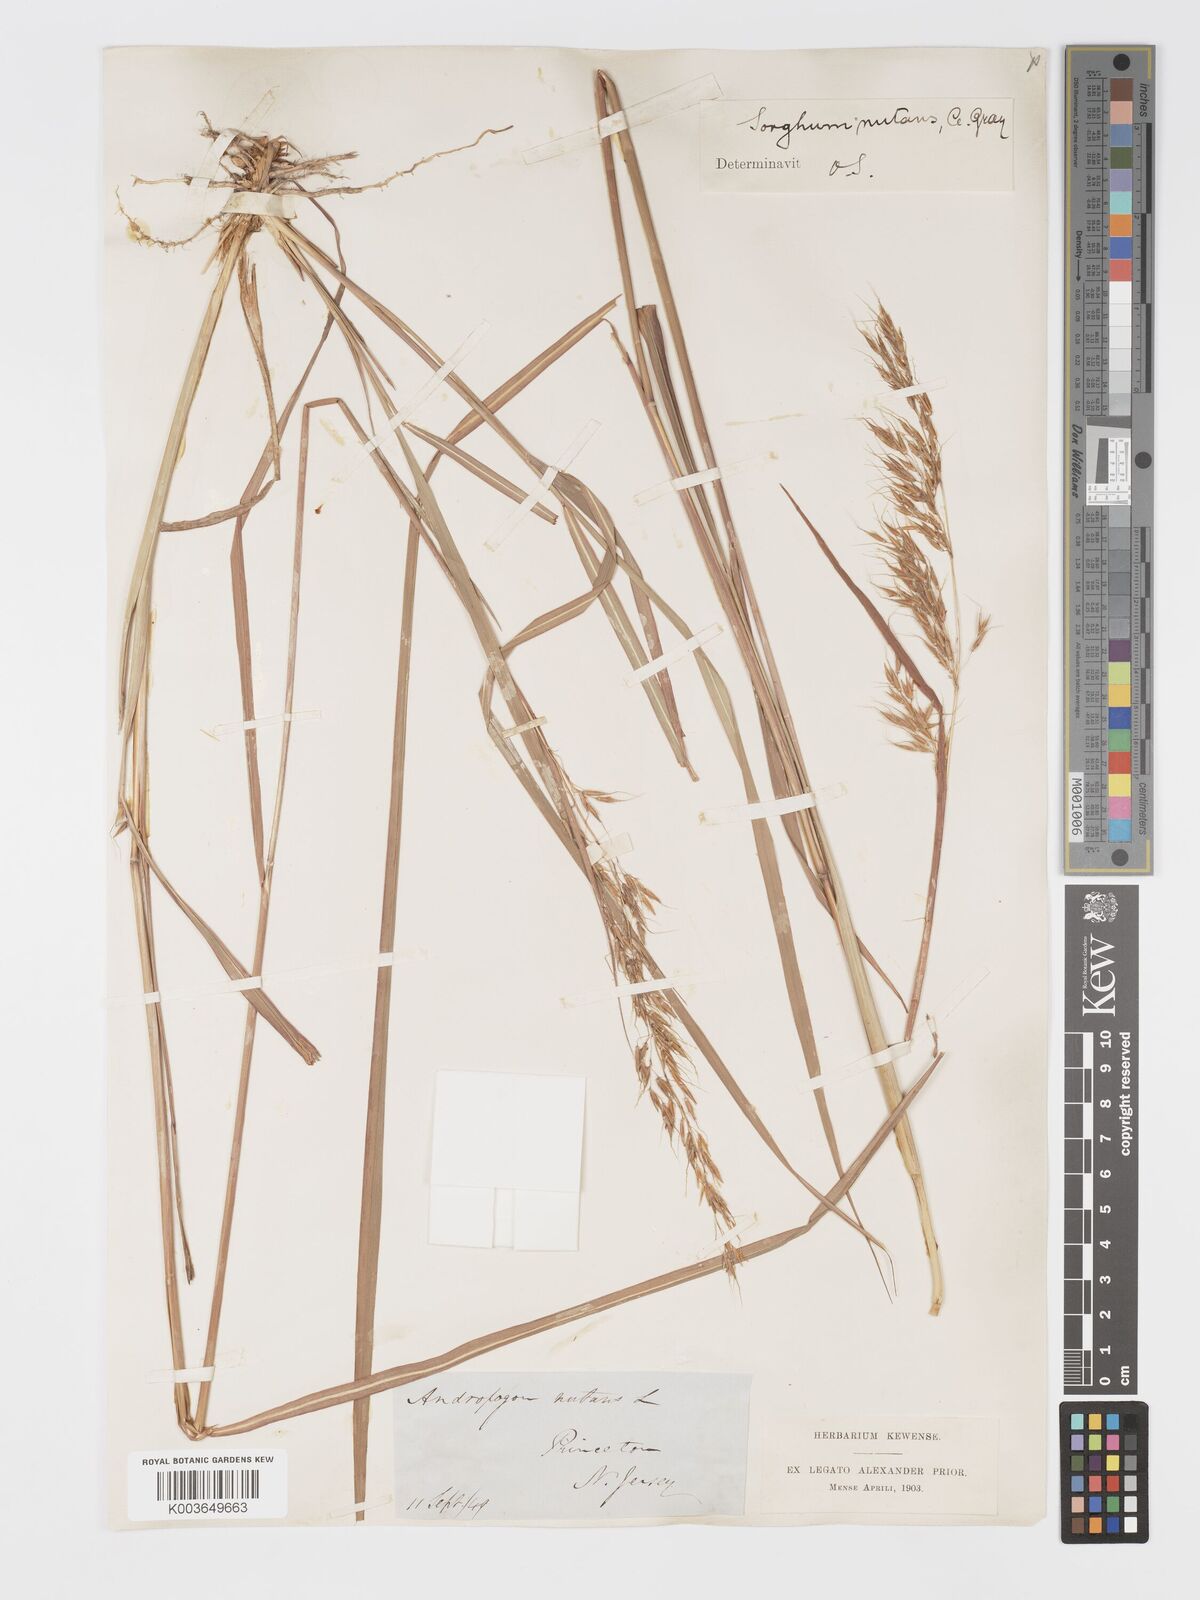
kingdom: Plantae
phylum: Tracheophyta
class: Liliopsida
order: Poales
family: Poaceae
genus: Sorghastrum
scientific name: Sorghastrum nutans
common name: Indian grass
